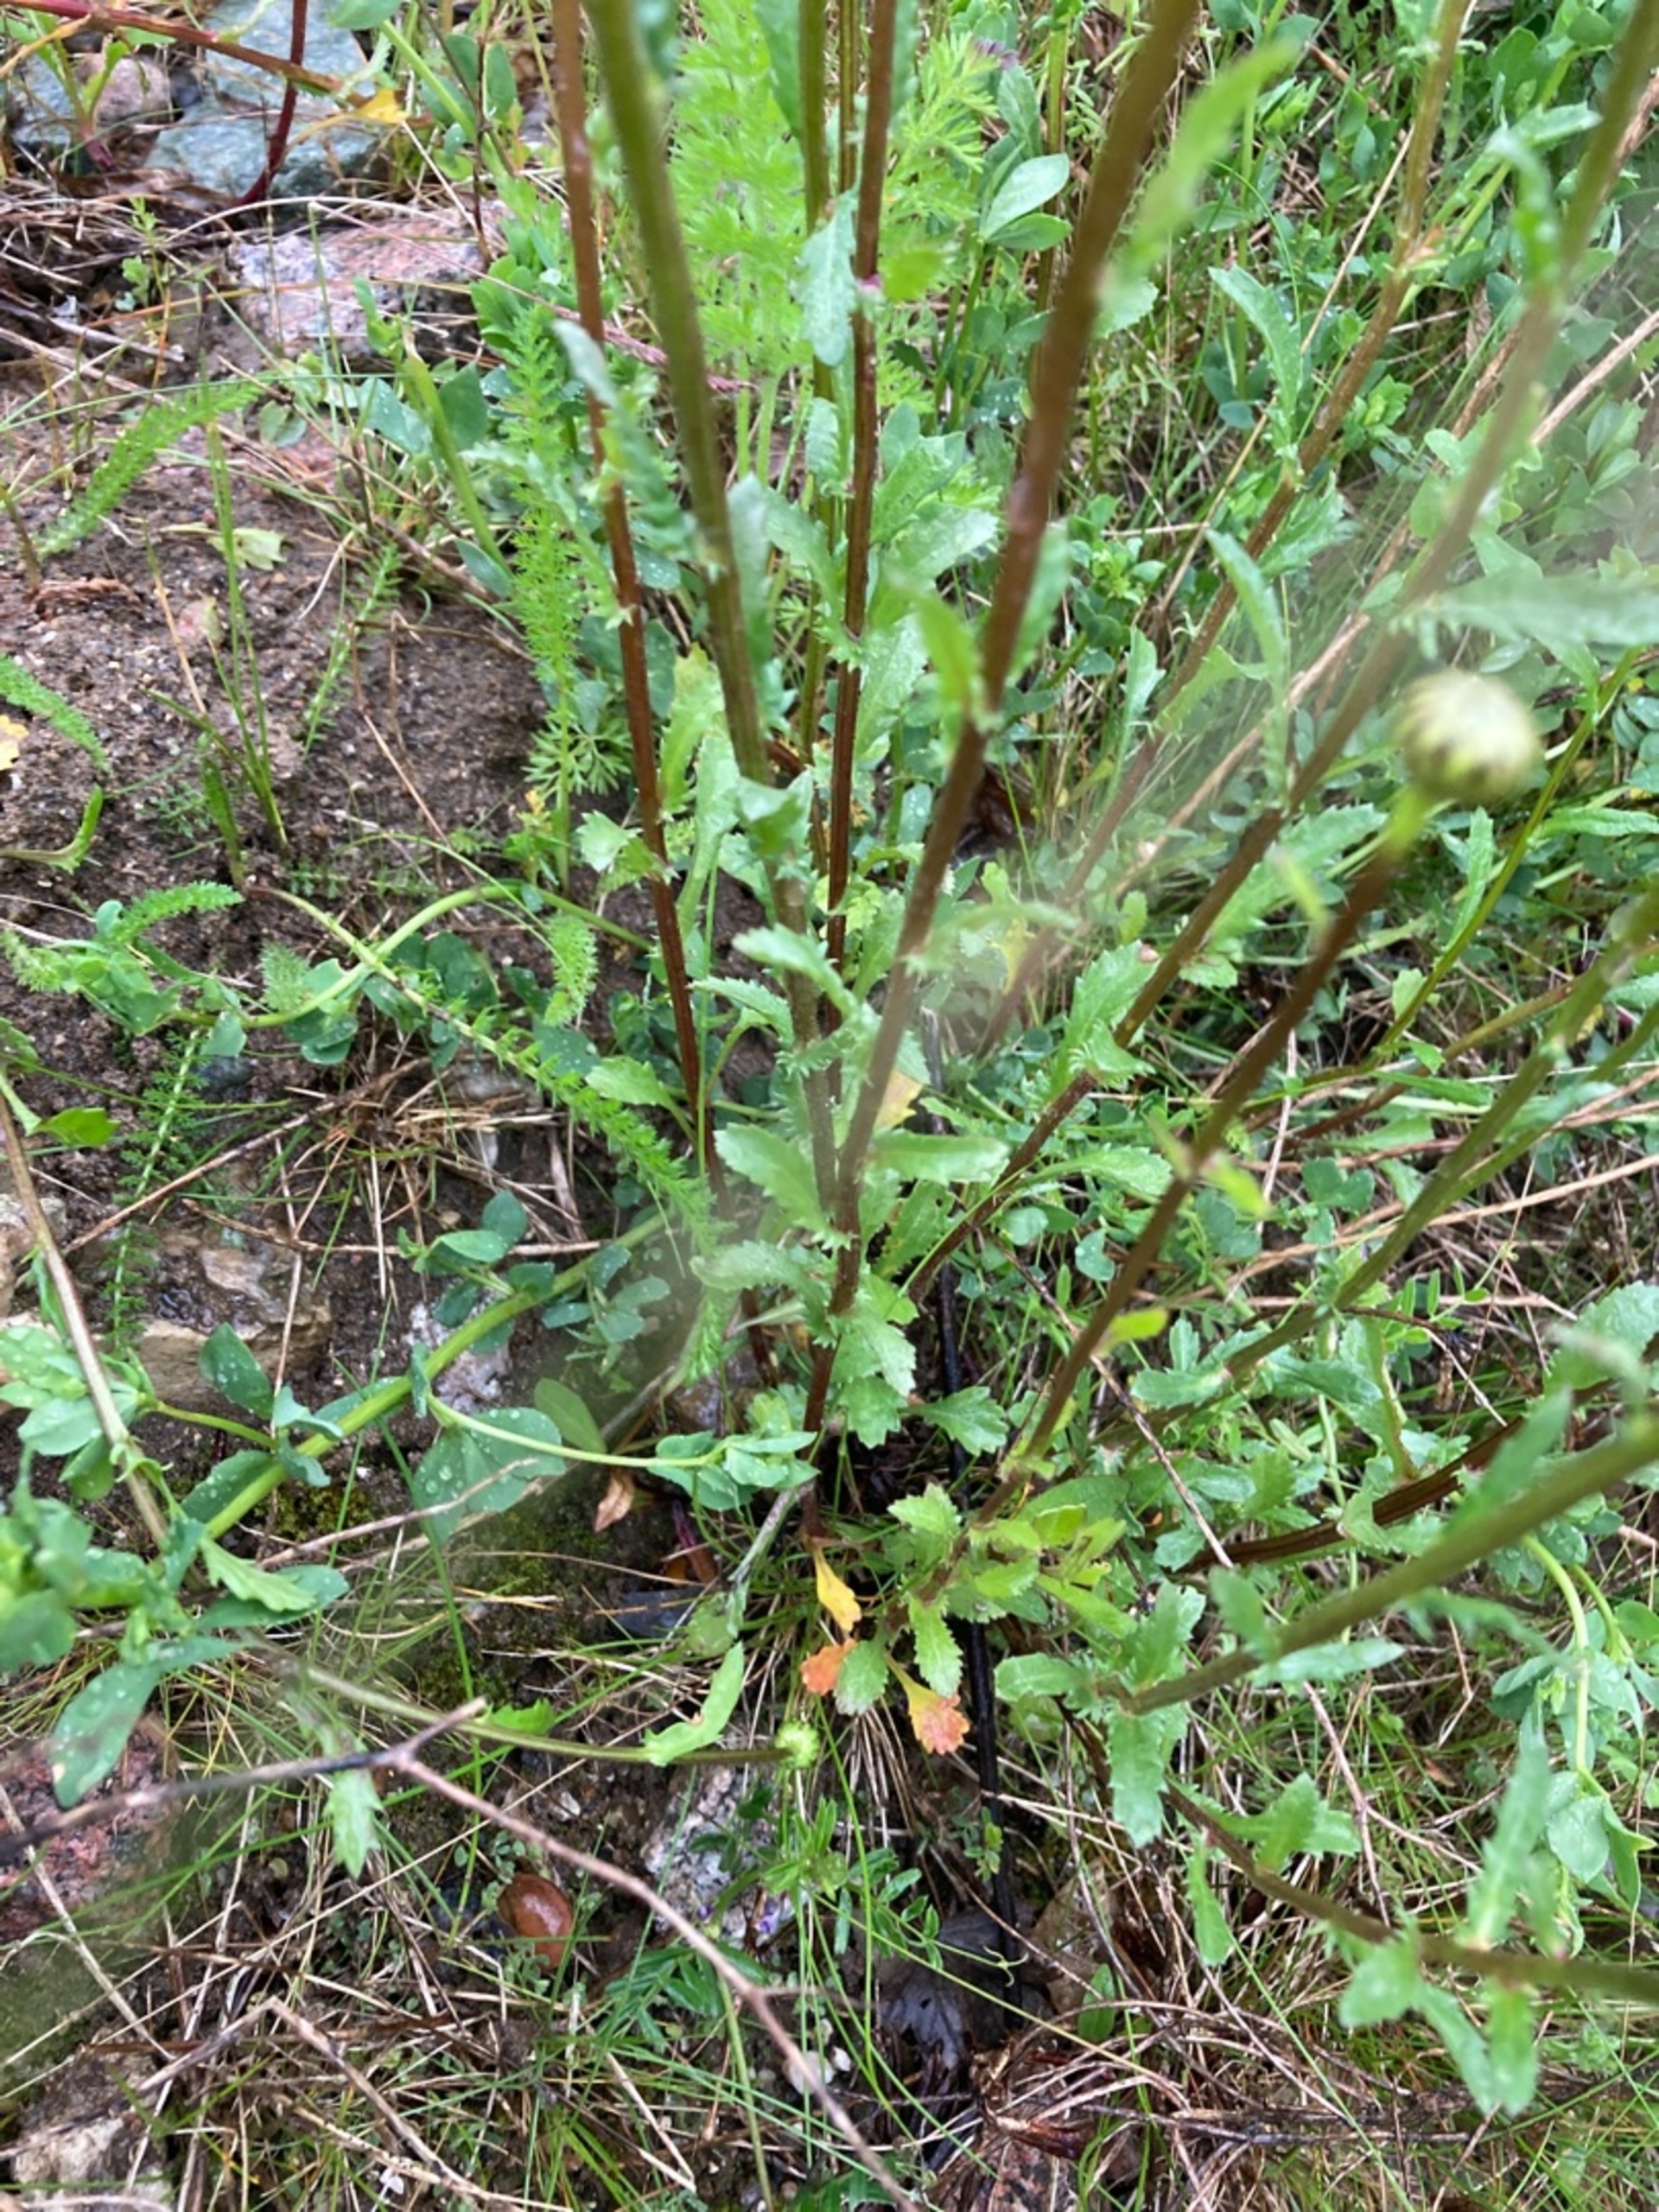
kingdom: Plantae
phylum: Tracheophyta
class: Magnoliopsida
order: Asterales
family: Asteraceae
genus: Leucanthemum
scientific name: Leucanthemum vulgare
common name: Hvid okseøje
